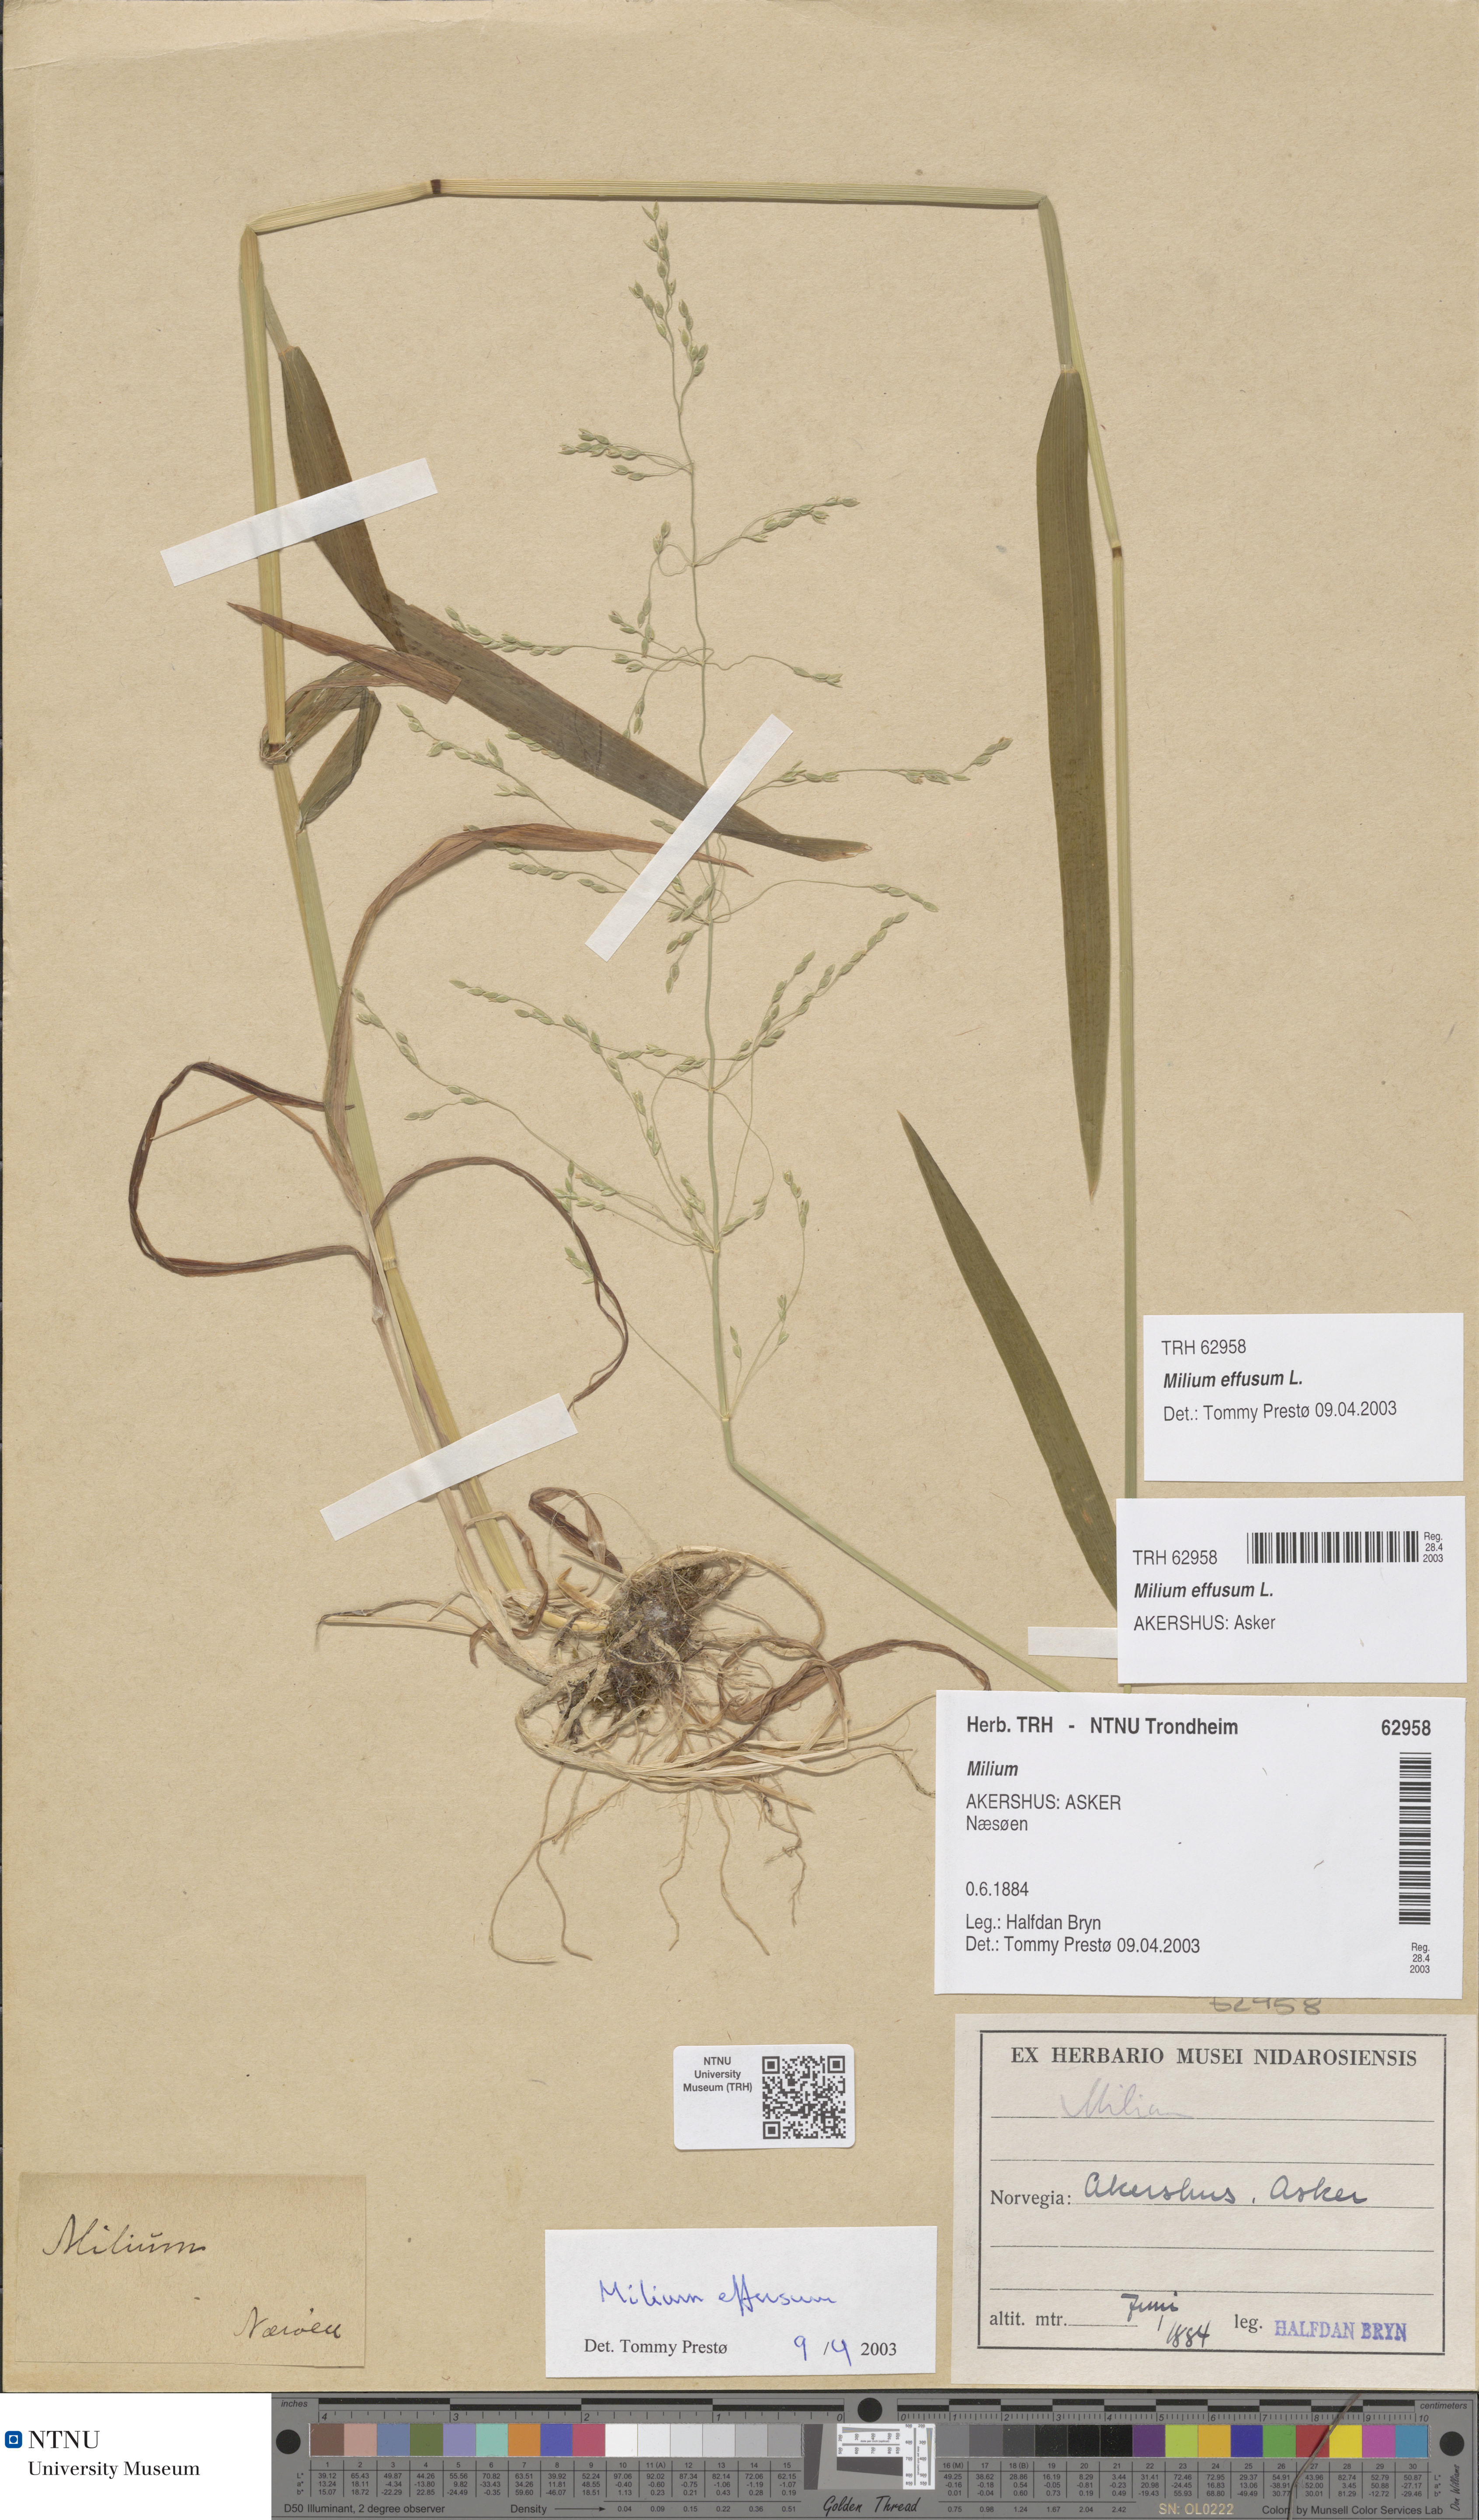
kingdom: Plantae
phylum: Tracheophyta
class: Liliopsida
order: Poales
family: Poaceae
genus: Milium
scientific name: Milium effusum
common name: Wood millet
